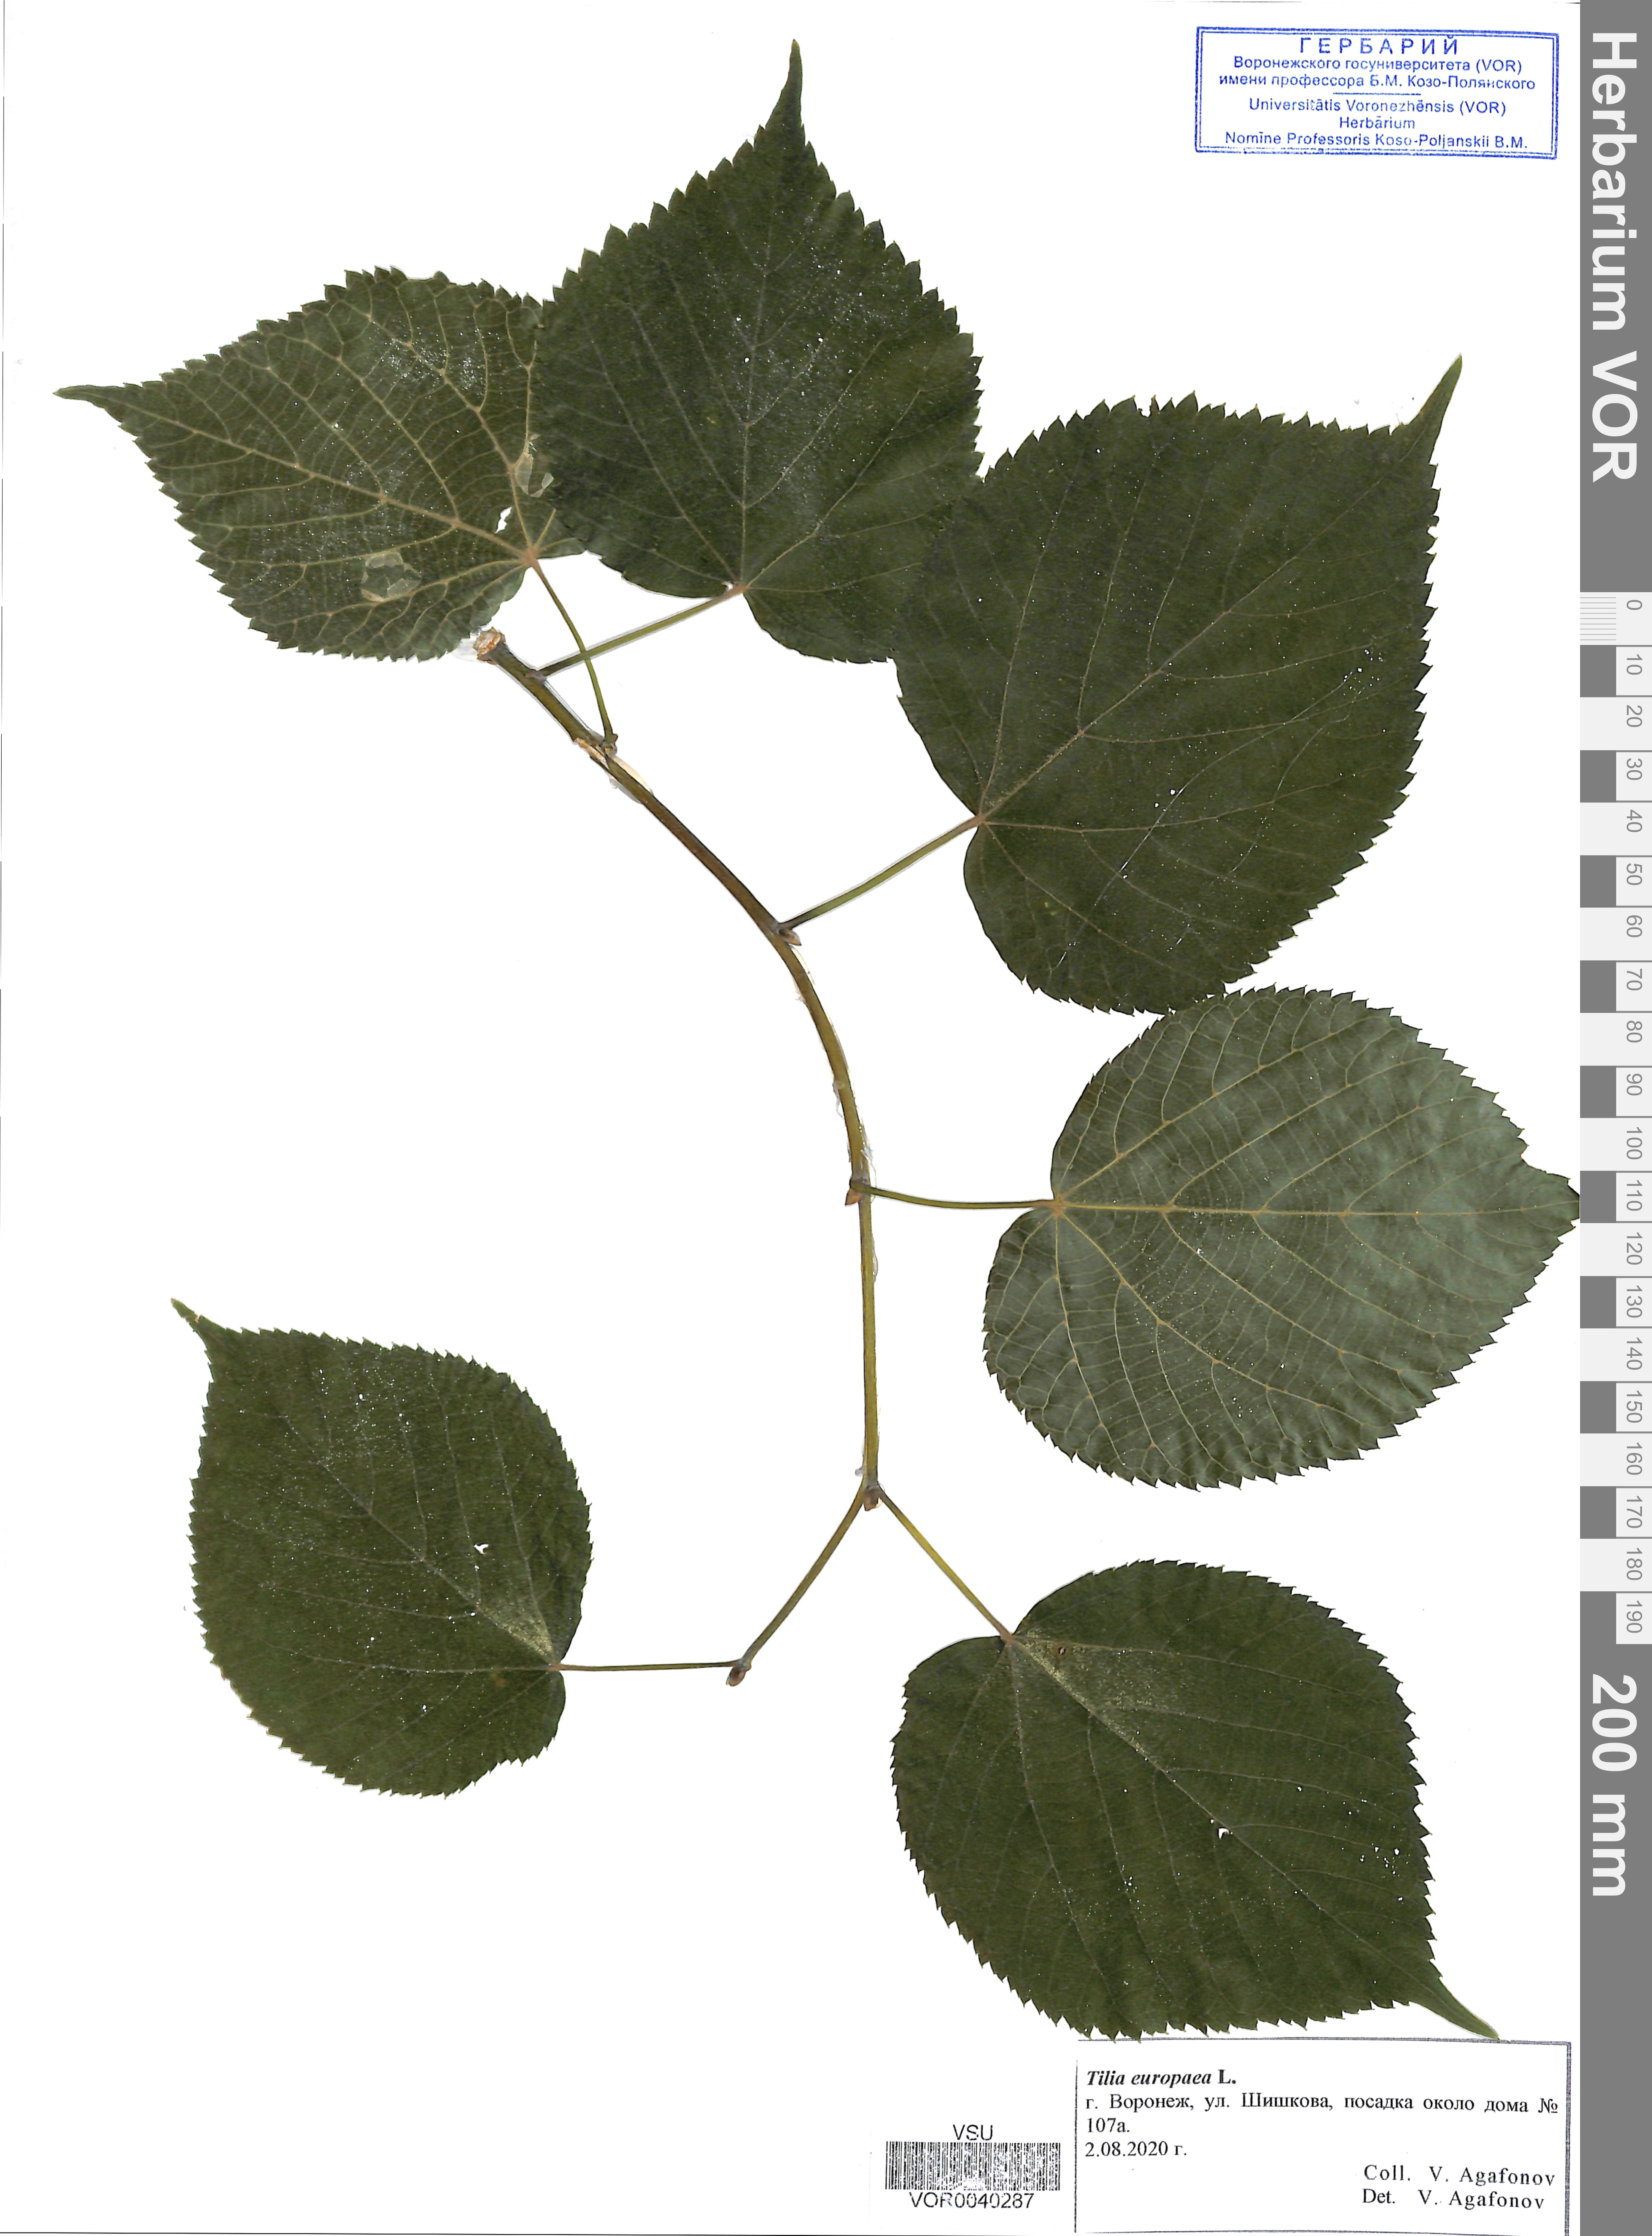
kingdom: Plantae
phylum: Tracheophyta
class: Magnoliopsida
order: Malvales
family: Malvaceae
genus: Tilia
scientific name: Tilia europaea
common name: European linden
